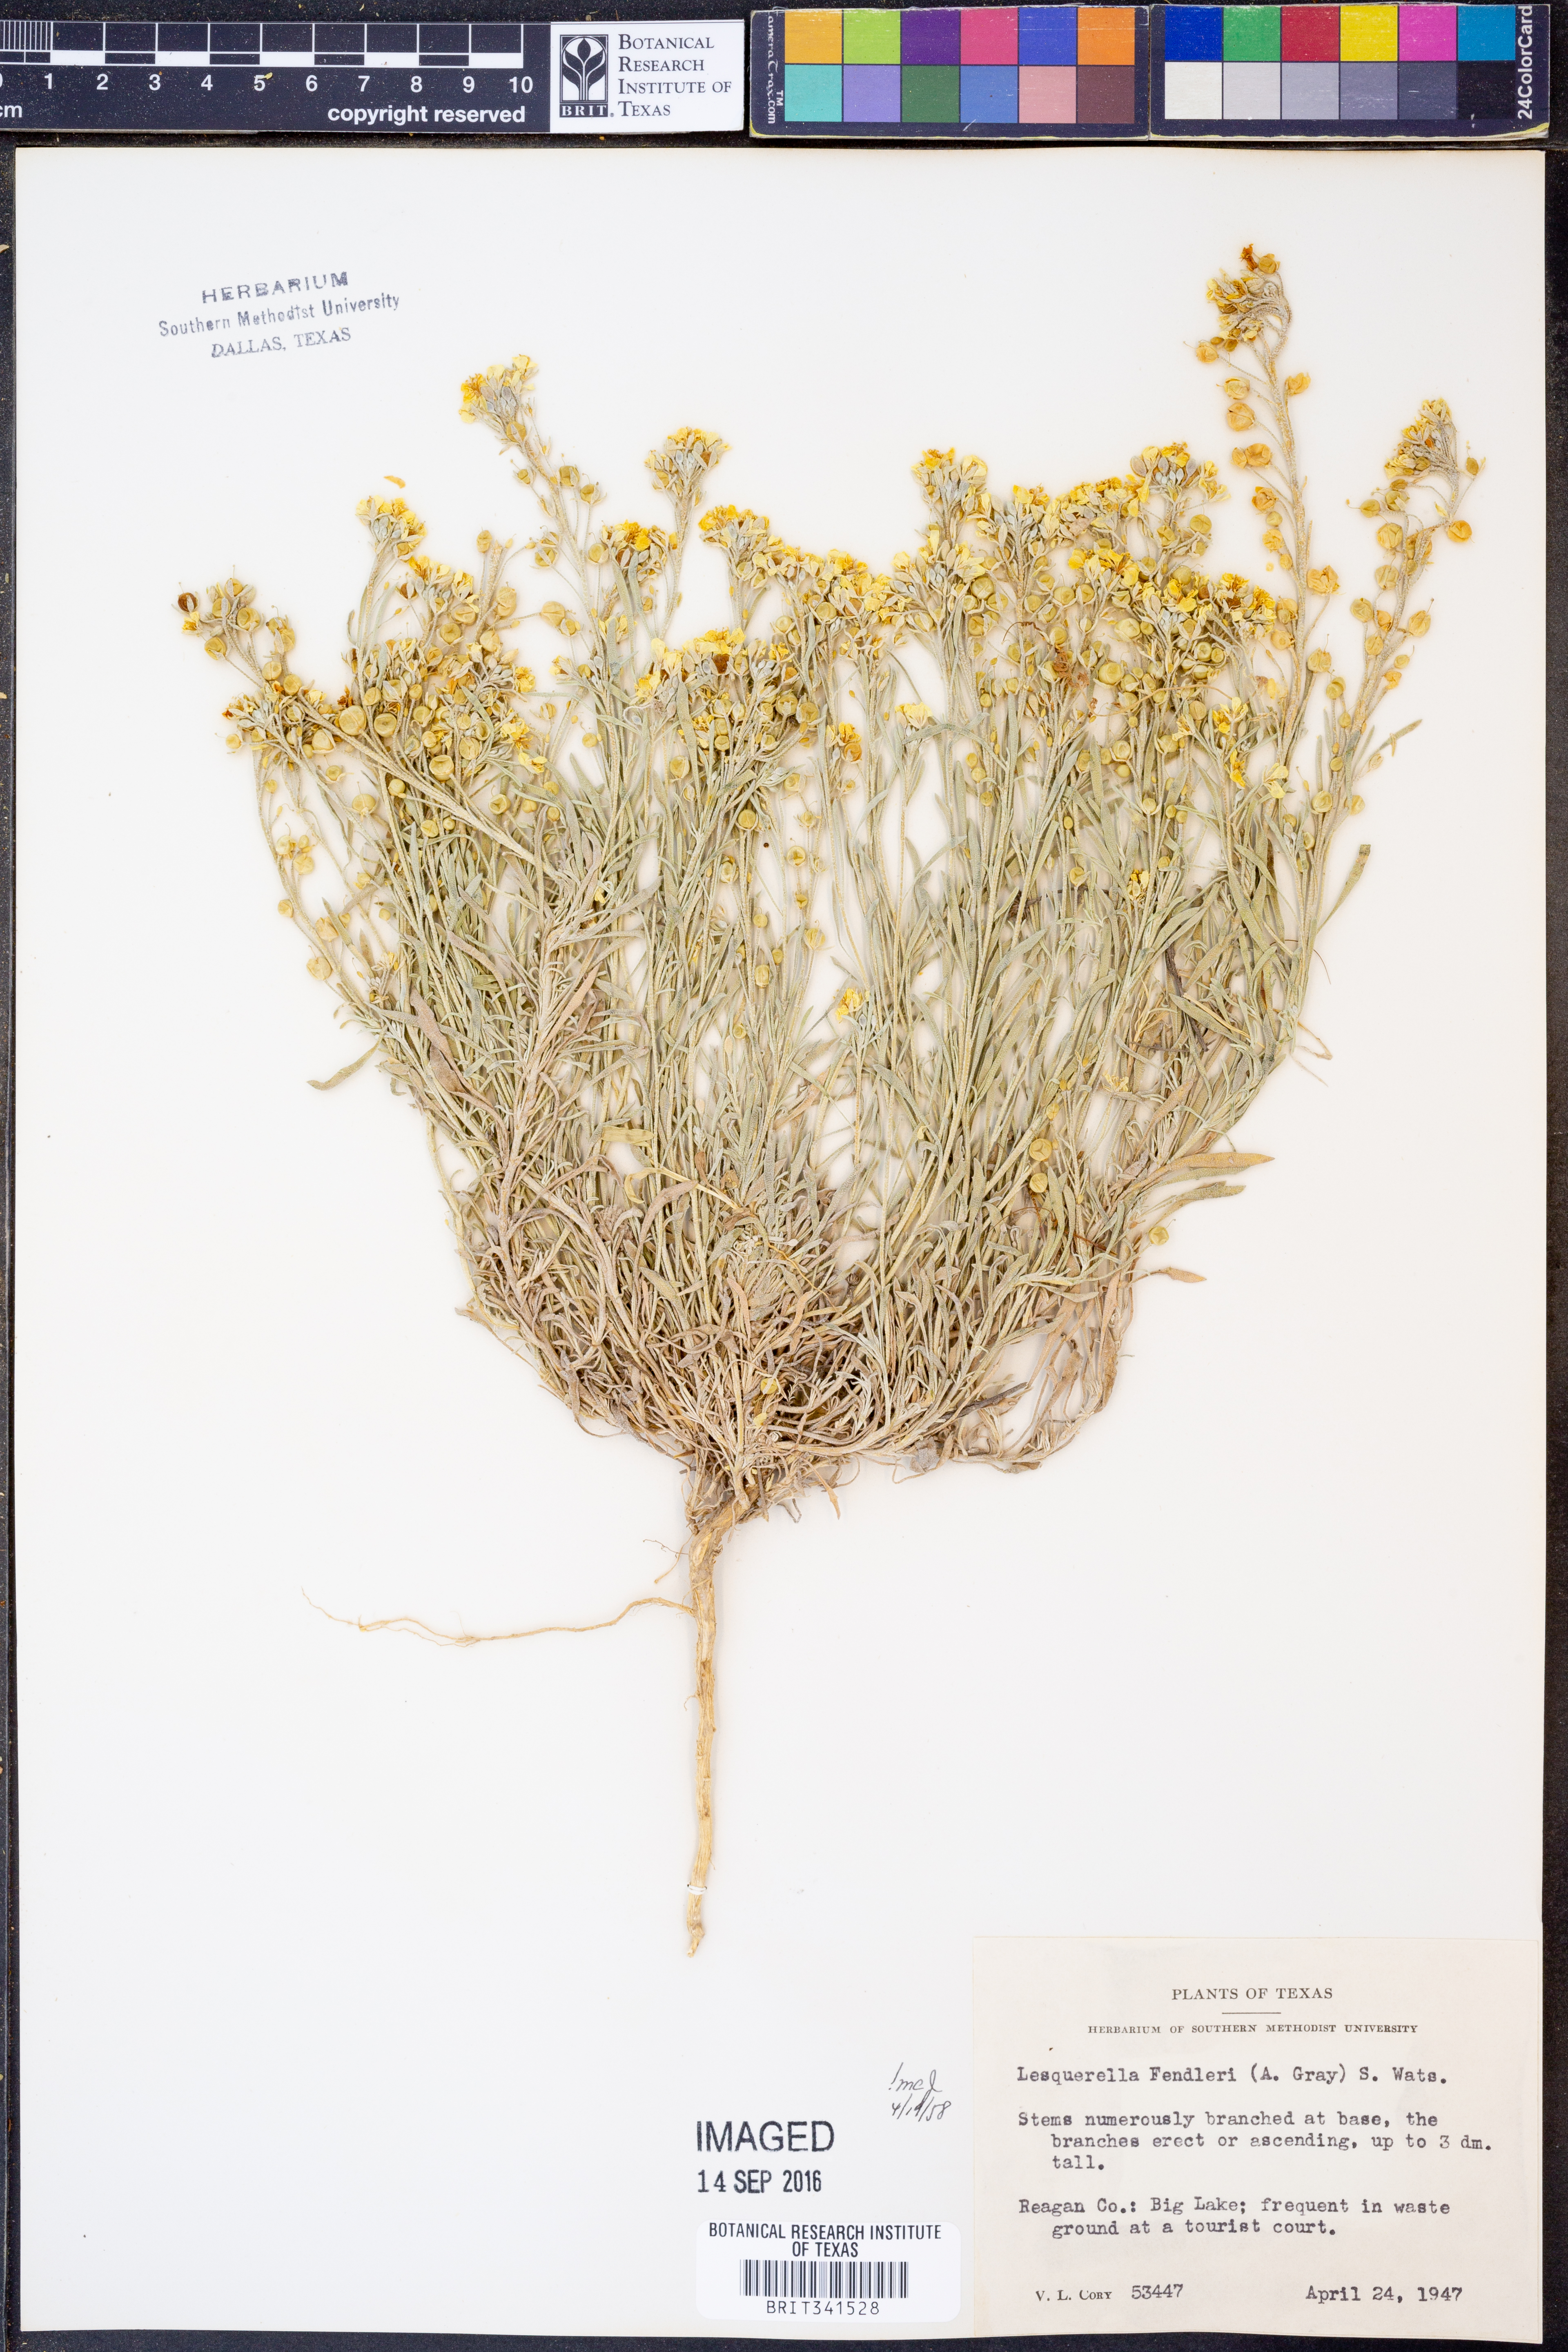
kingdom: Plantae
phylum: Tracheophyta
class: Magnoliopsida
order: Brassicales
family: Brassicaceae
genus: Physaria
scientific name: Physaria fendleri
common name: Fendler's bladderpod
